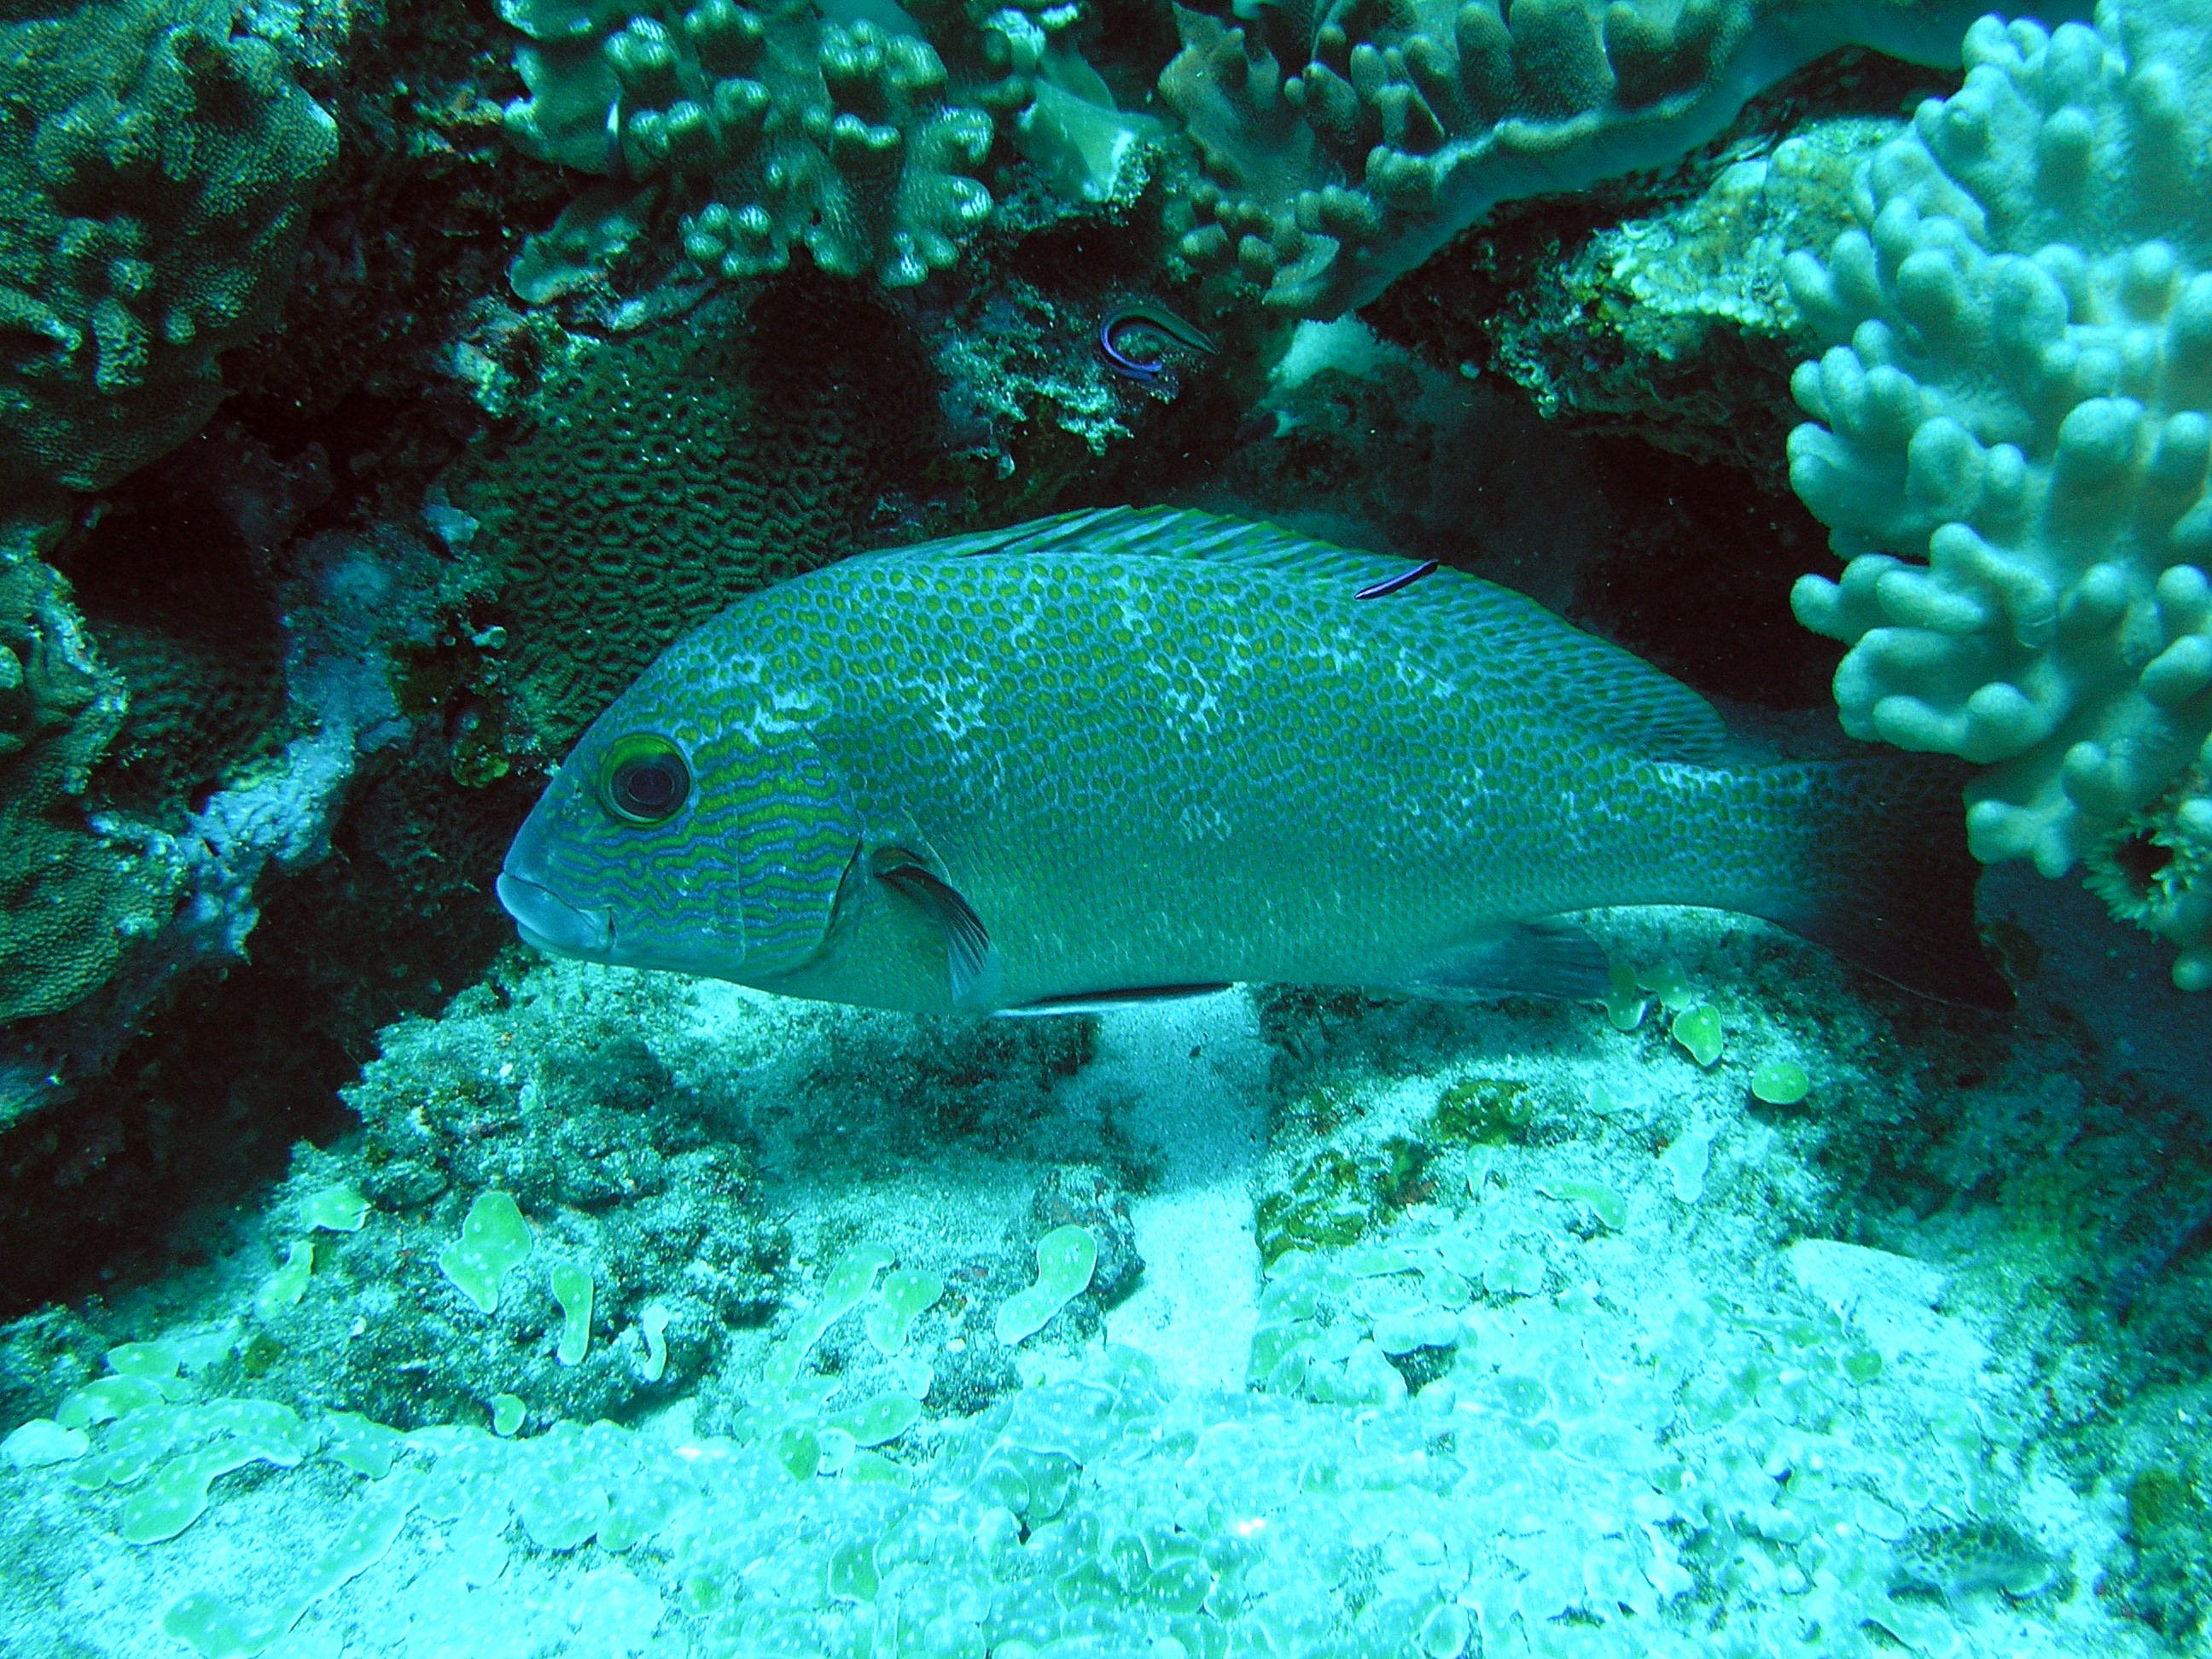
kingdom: Animalia
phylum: Chordata
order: Perciformes
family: Haemulidae
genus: Plectorhinchus
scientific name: Plectorhinchus flavomaculatus
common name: Netted sweetlips
